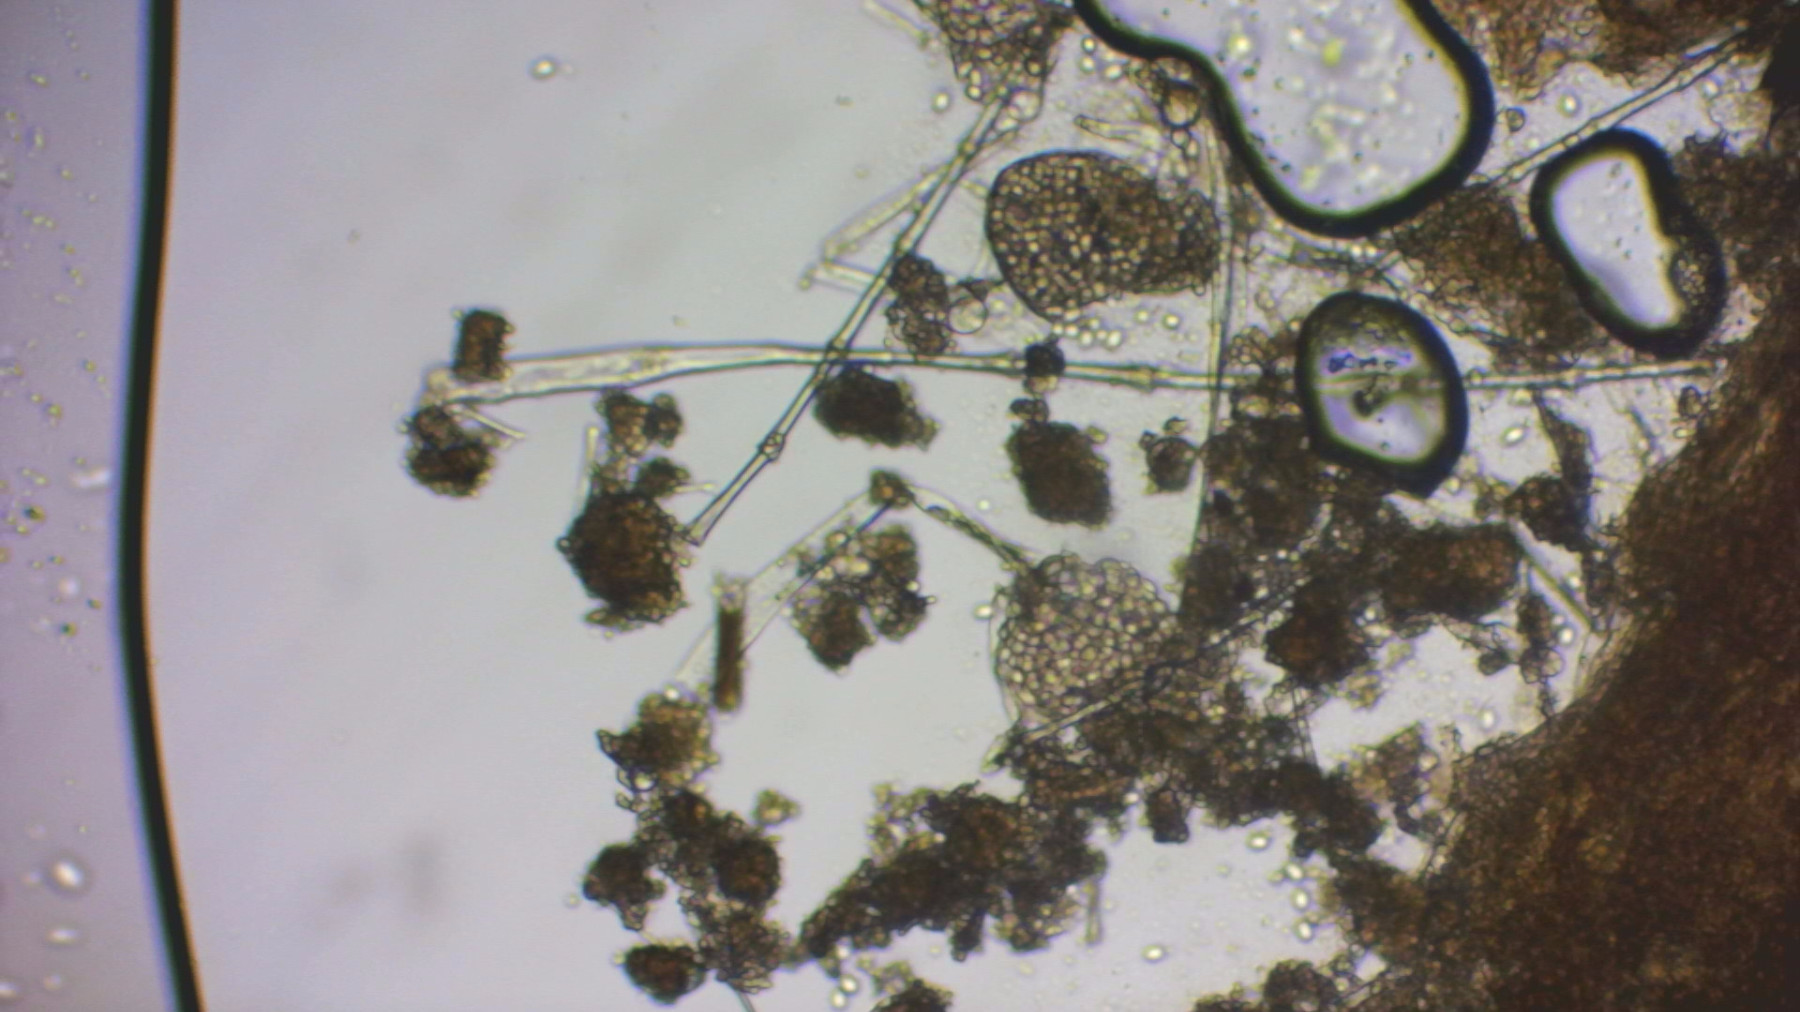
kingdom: Fungi
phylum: Mucoromycota
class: Mucoromycetes
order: Mucorales
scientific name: Mucorales
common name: mugordenen
